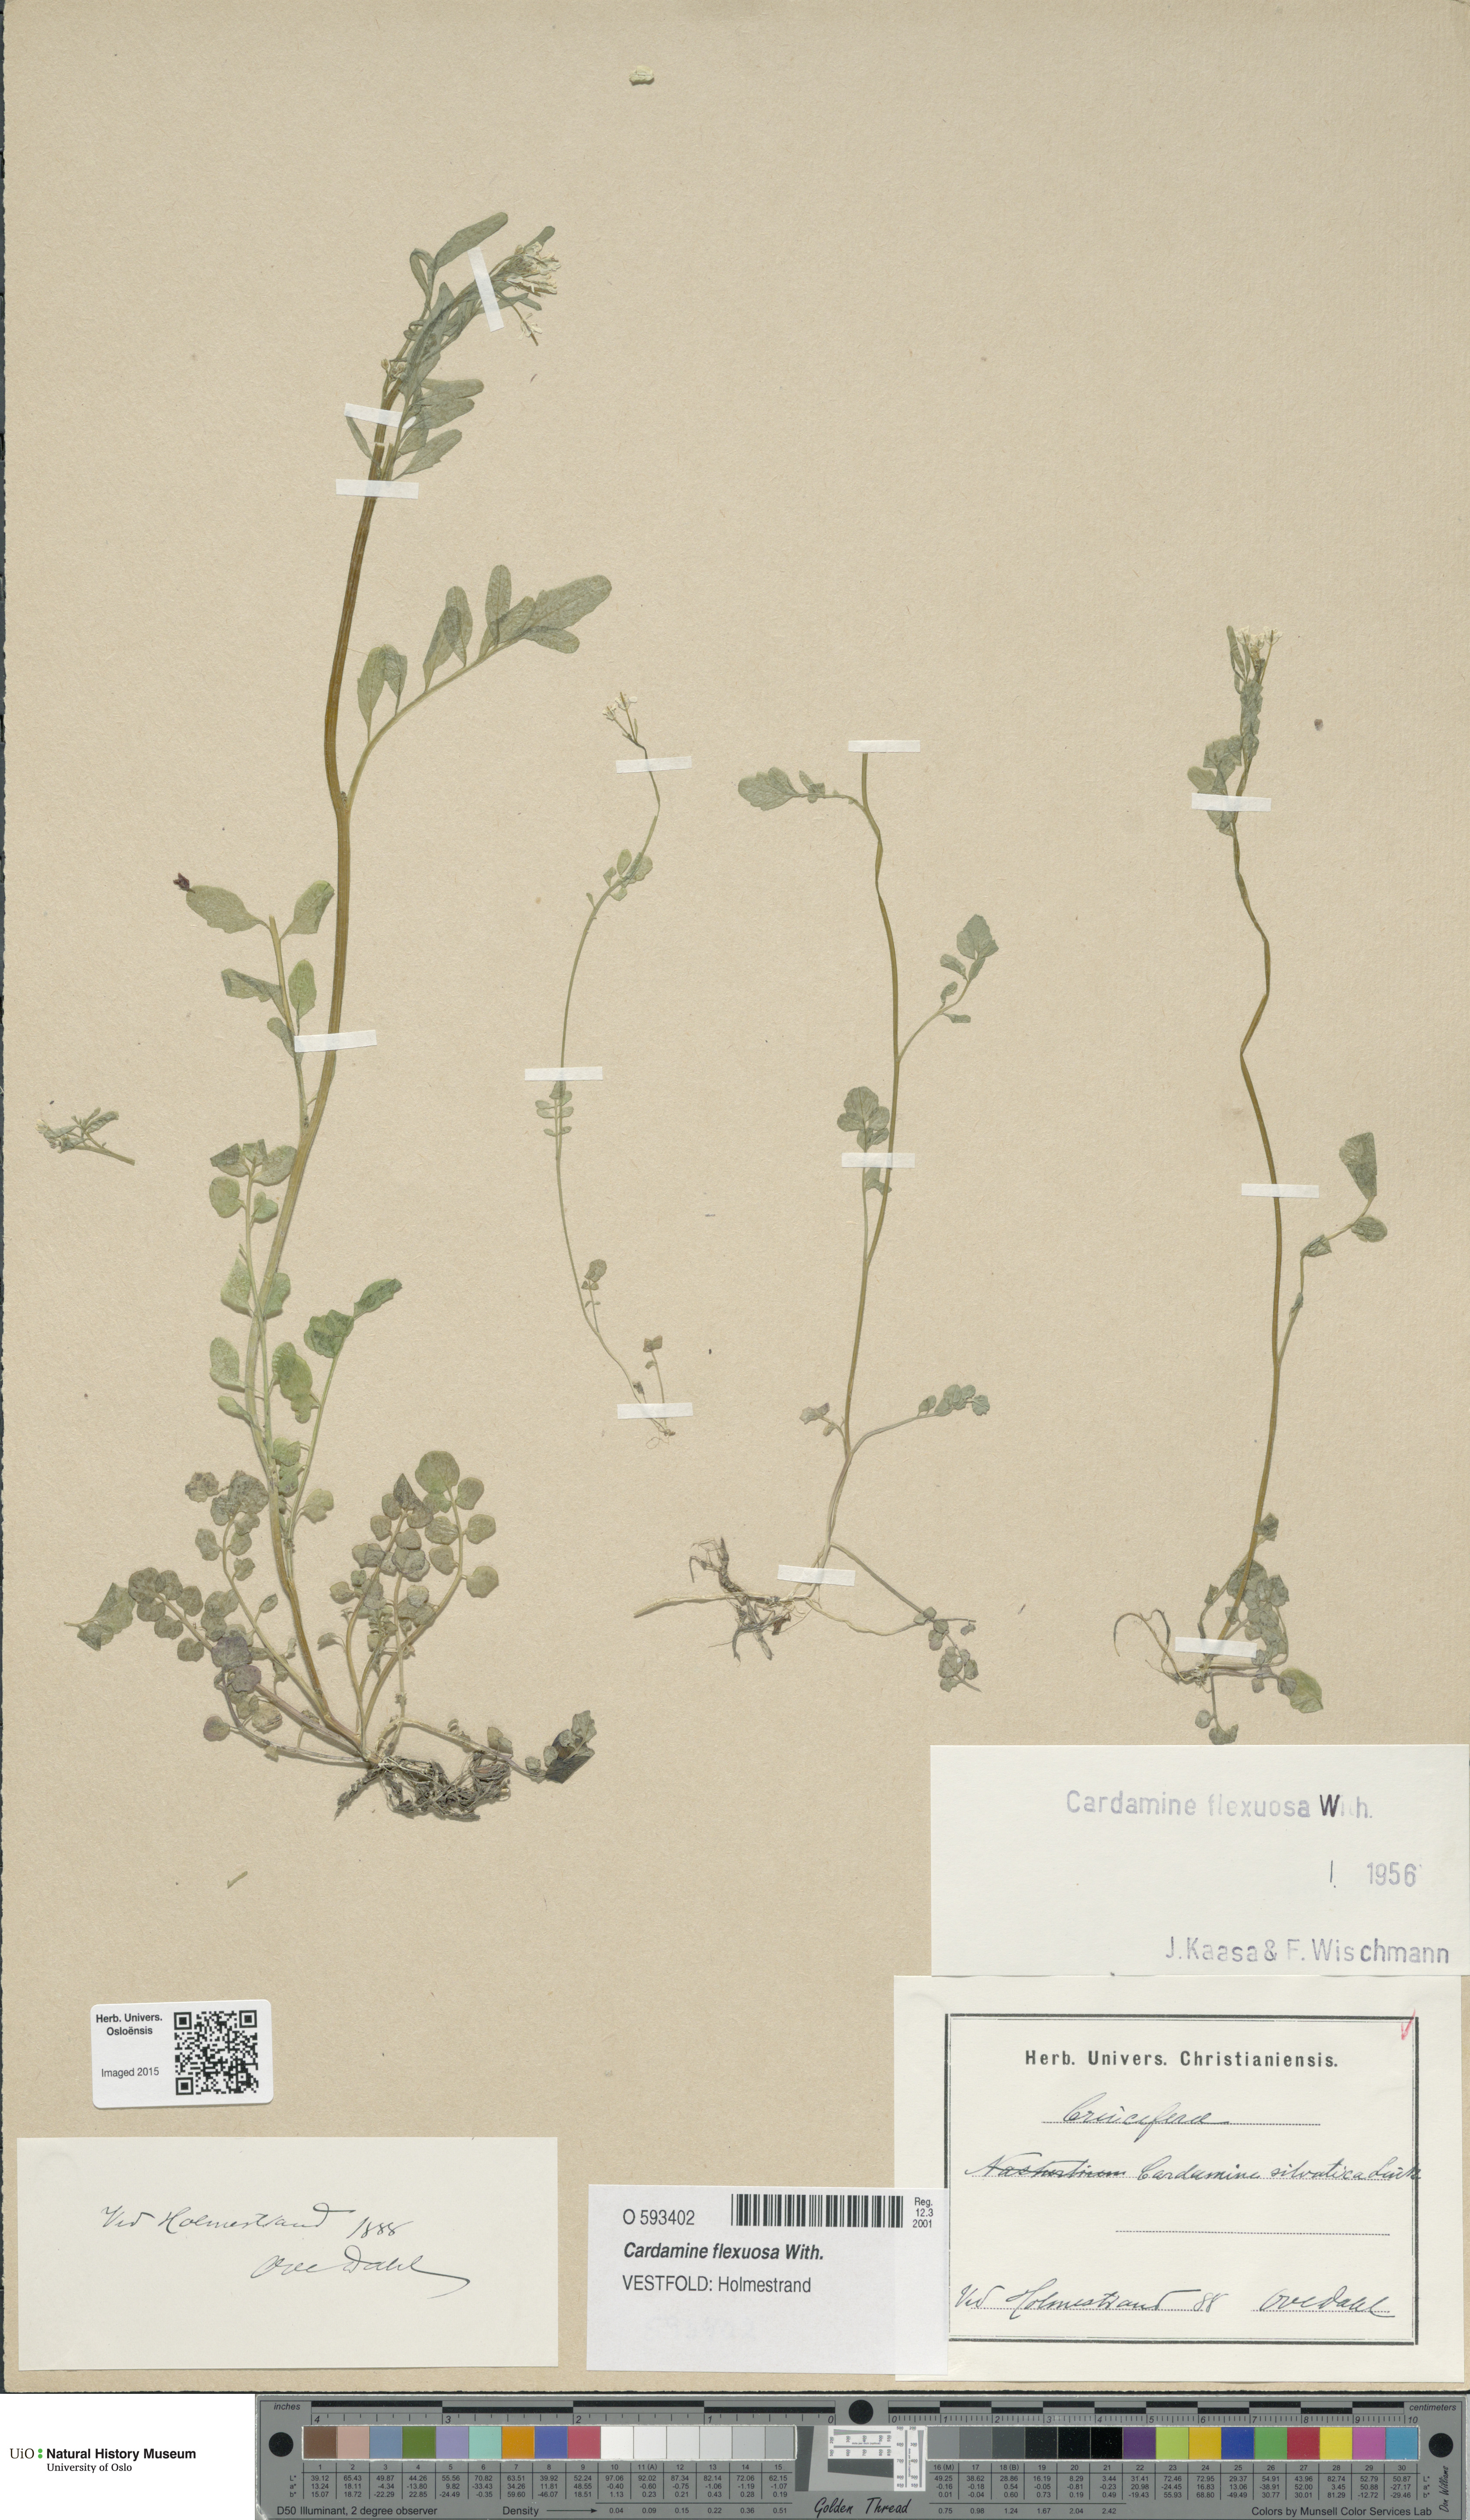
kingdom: Plantae
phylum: Tracheophyta
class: Magnoliopsida
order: Brassicales
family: Brassicaceae
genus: Cardamine
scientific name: Cardamine flexuosa
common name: Woodland bittercress
